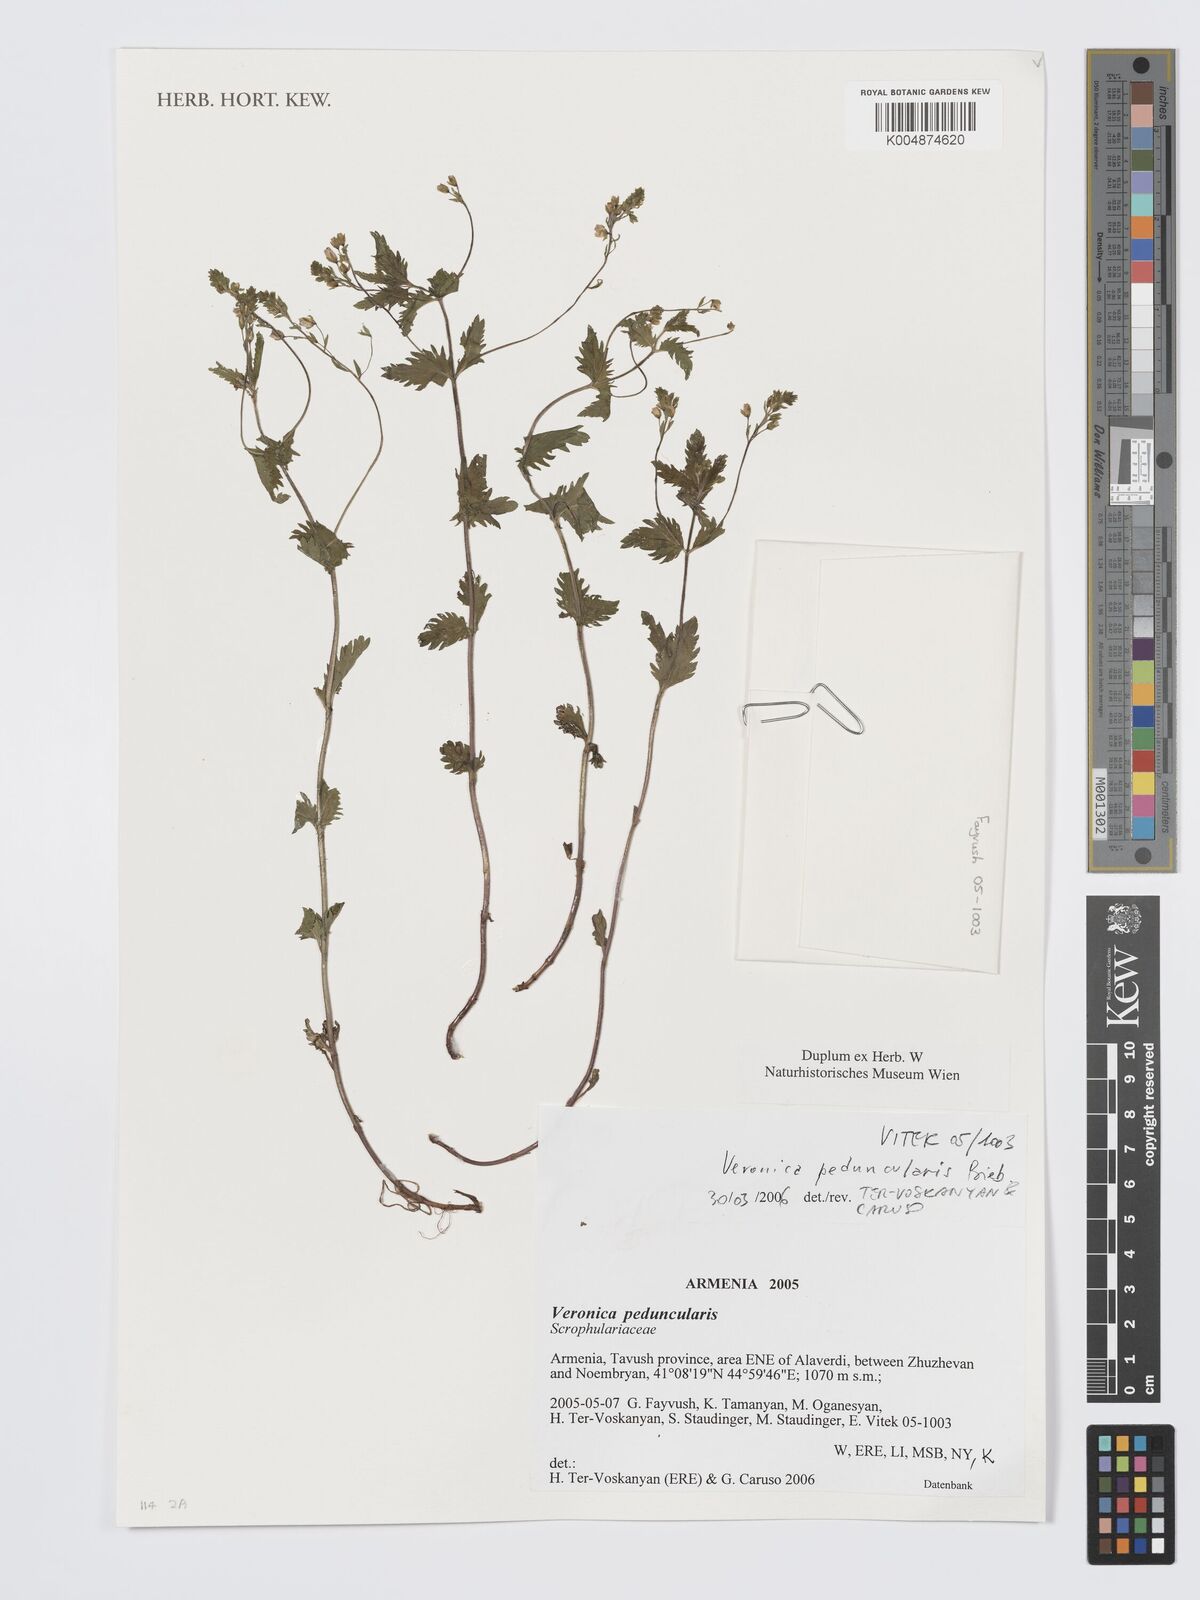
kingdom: Plantae
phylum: Tracheophyta
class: Magnoliopsida
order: Lamiales
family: Plantaginaceae
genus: Veronica
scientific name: Veronica
